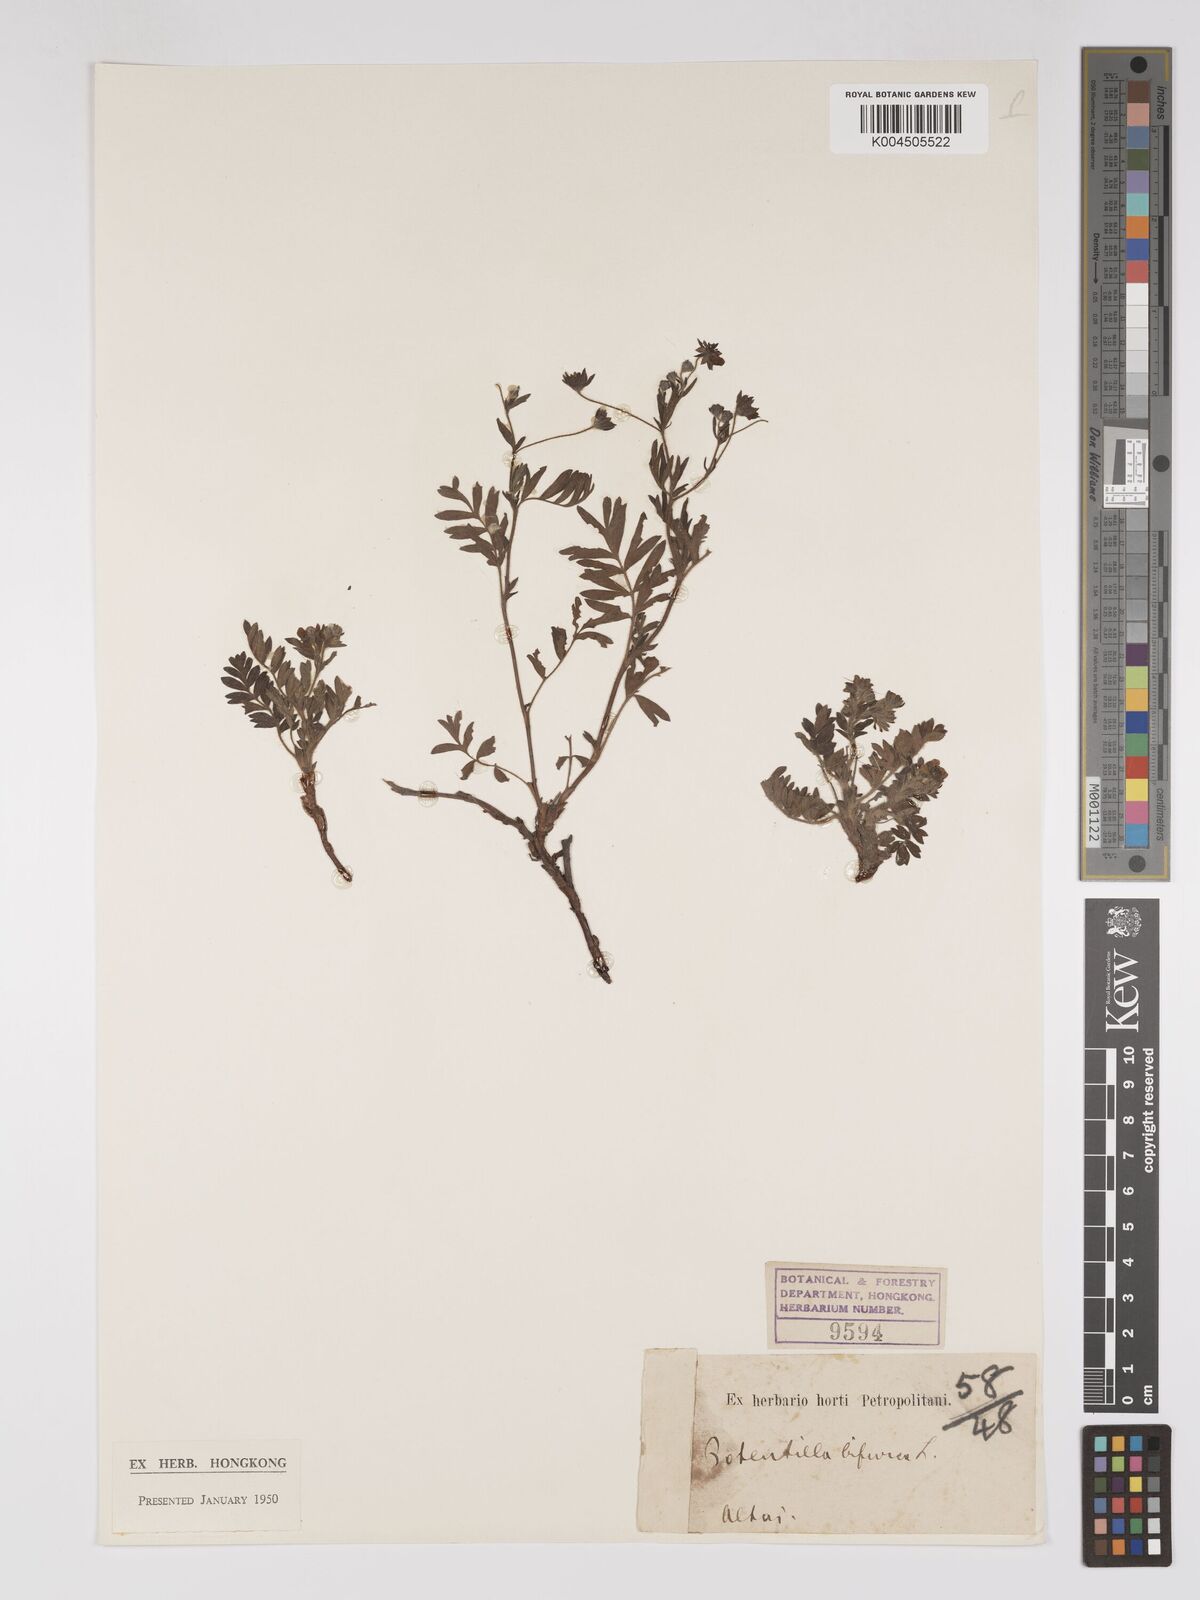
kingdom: Plantae
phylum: Tracheophyta
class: Magnoliopsida
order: Rosales
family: Rosaceae
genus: Sibbaldianthe
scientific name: Sibbaldianthe bifurca
